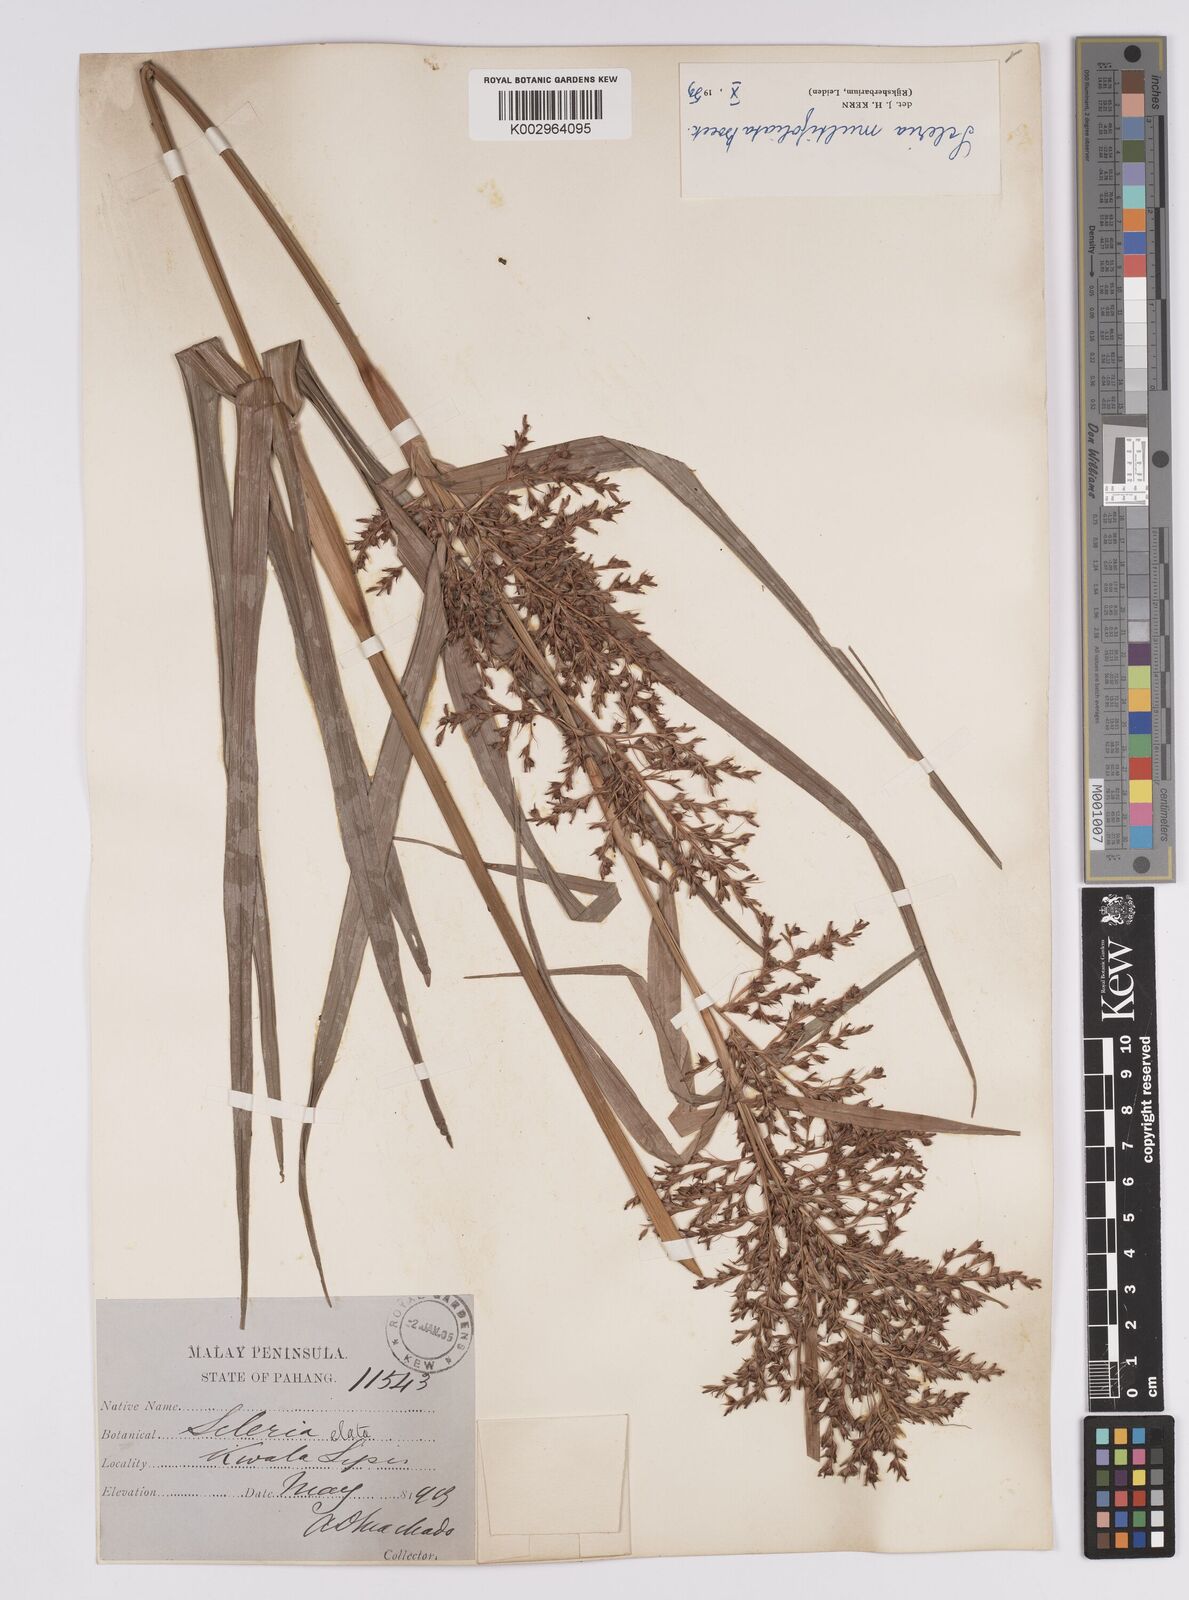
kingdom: Plantae
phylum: Tracheophyta
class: Liliopsida
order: Poales
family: Cyperaceae
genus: Scleria
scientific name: Scleria purpurascens
